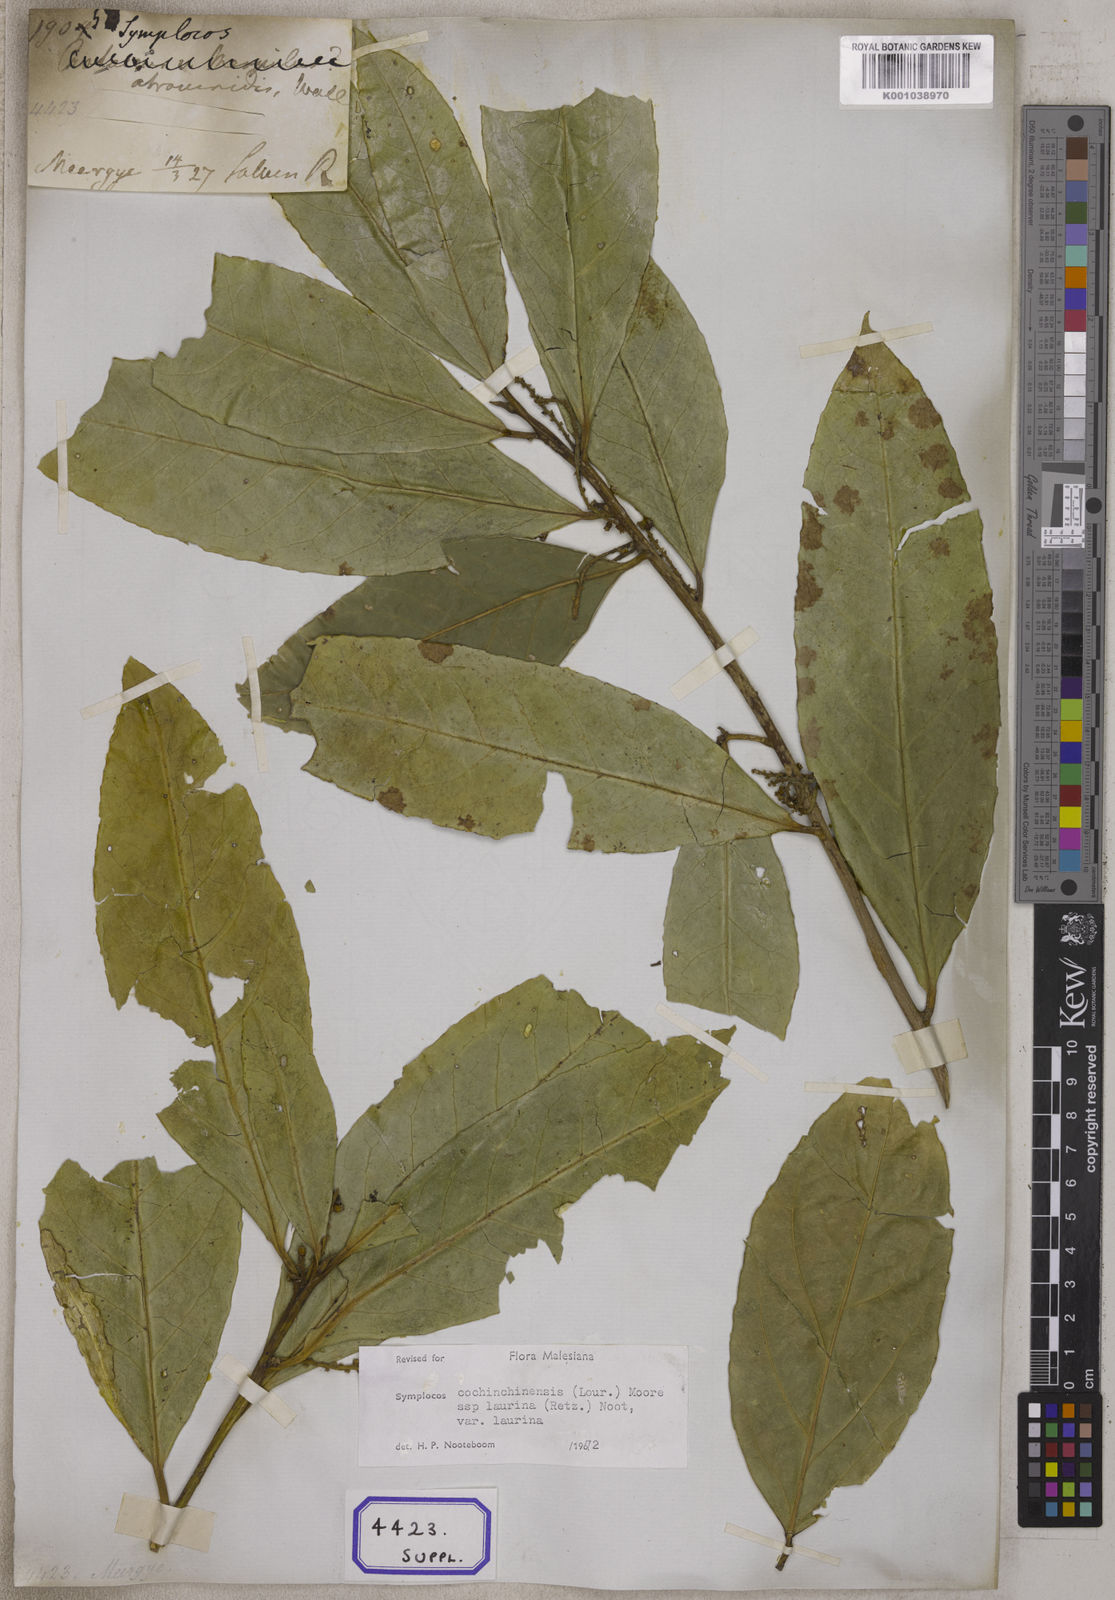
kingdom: Plantae
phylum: Tracheophyta
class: Magnoliopsida
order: Ericales
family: Symplocaceae
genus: Symplocos
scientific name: Symplocos
